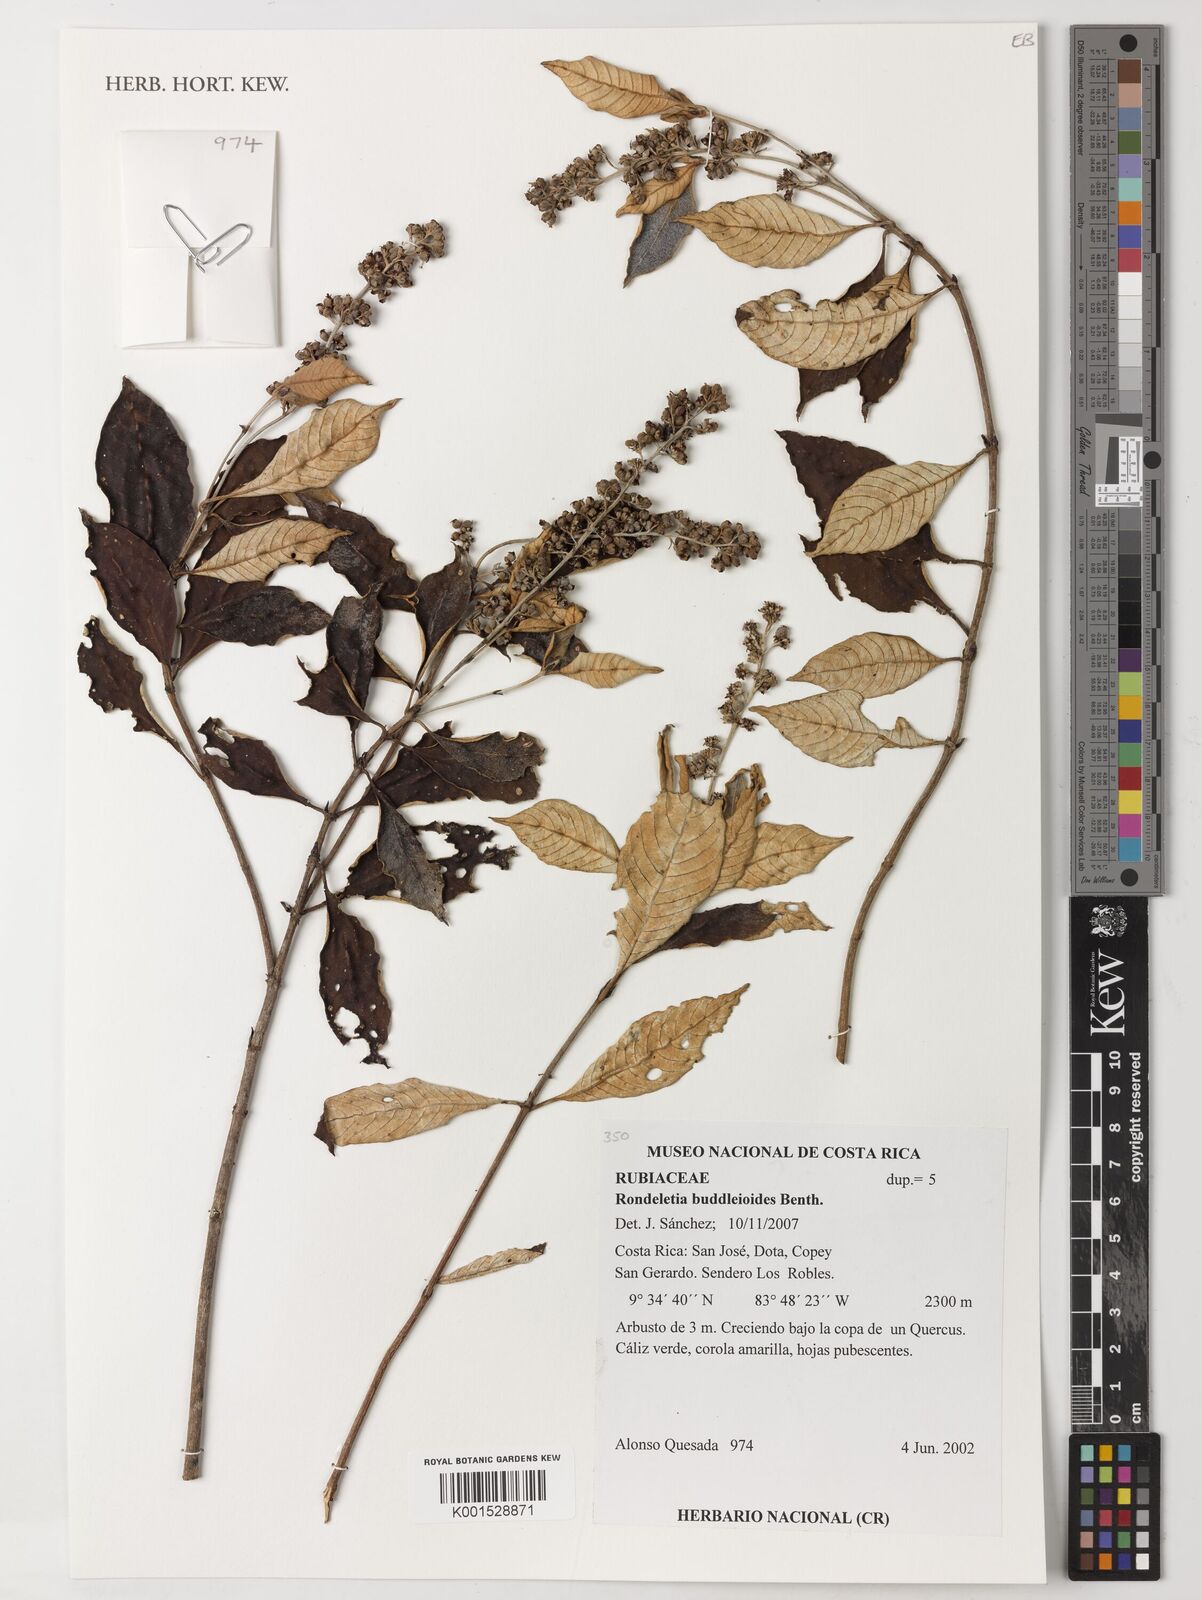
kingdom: Plantae
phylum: Tracheophyta
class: Magnoliopsida
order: Gentianales
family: Rubiaceae
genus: Arachnothryx
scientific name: Arachnothryx buddleioides
